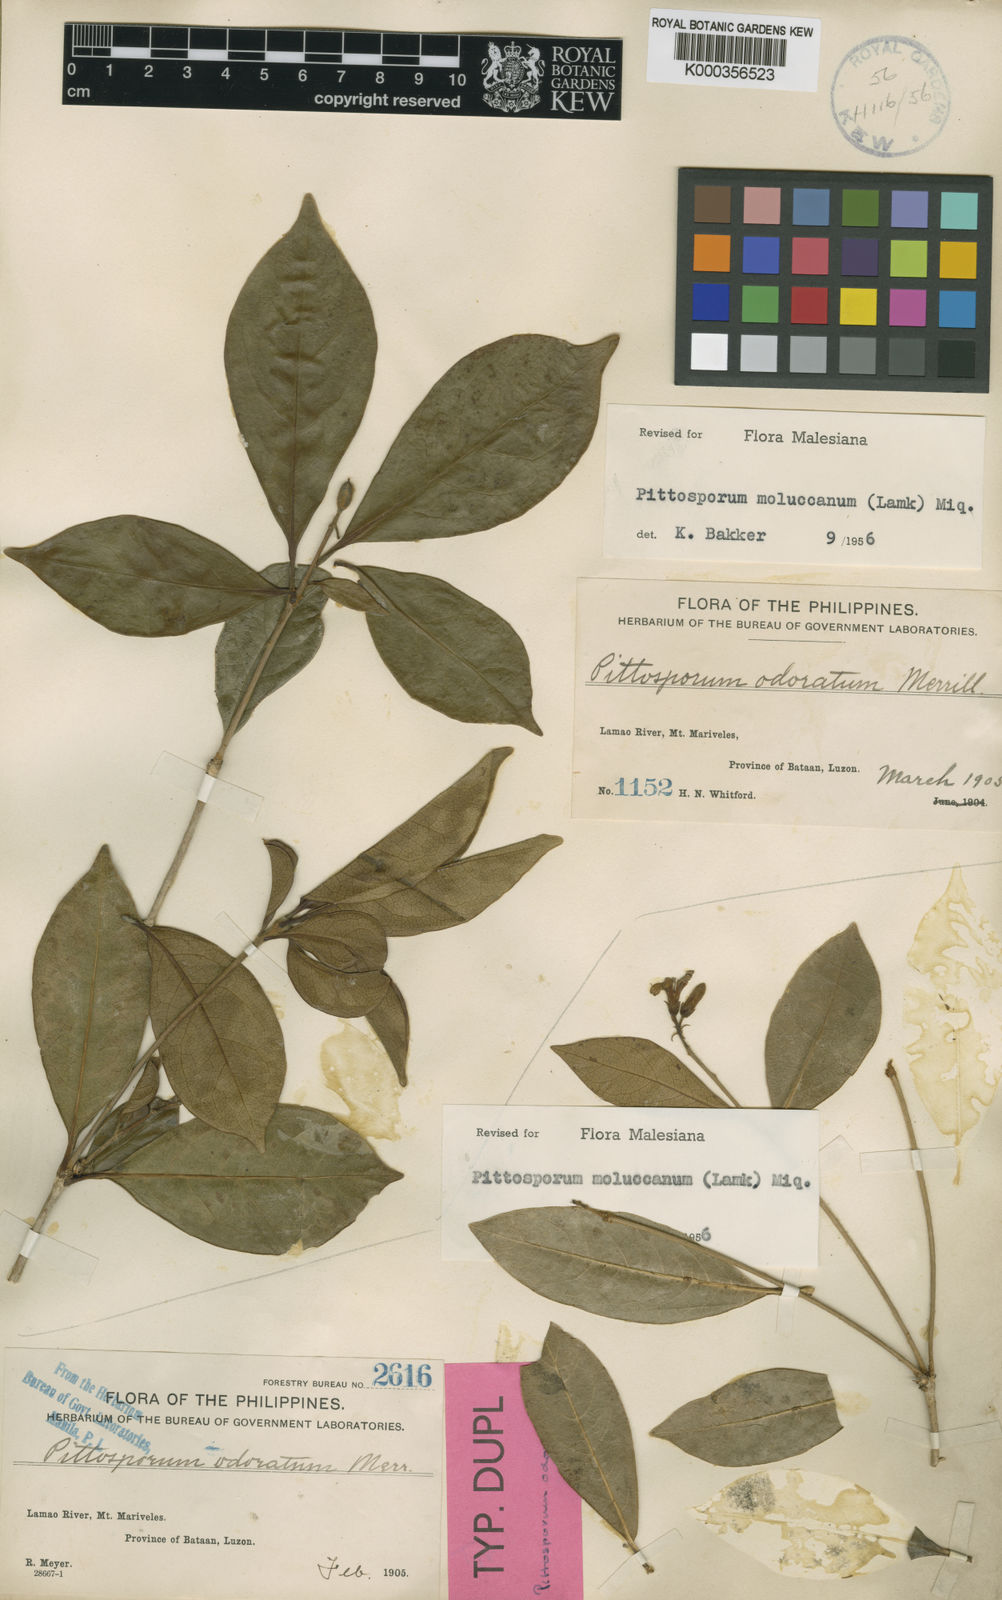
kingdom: Plantae
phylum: Tracheophyta
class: Magnoliopsida
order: Apiales
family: Pittosporaceae
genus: Pittosporum
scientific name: Pittosporum moluccanum
